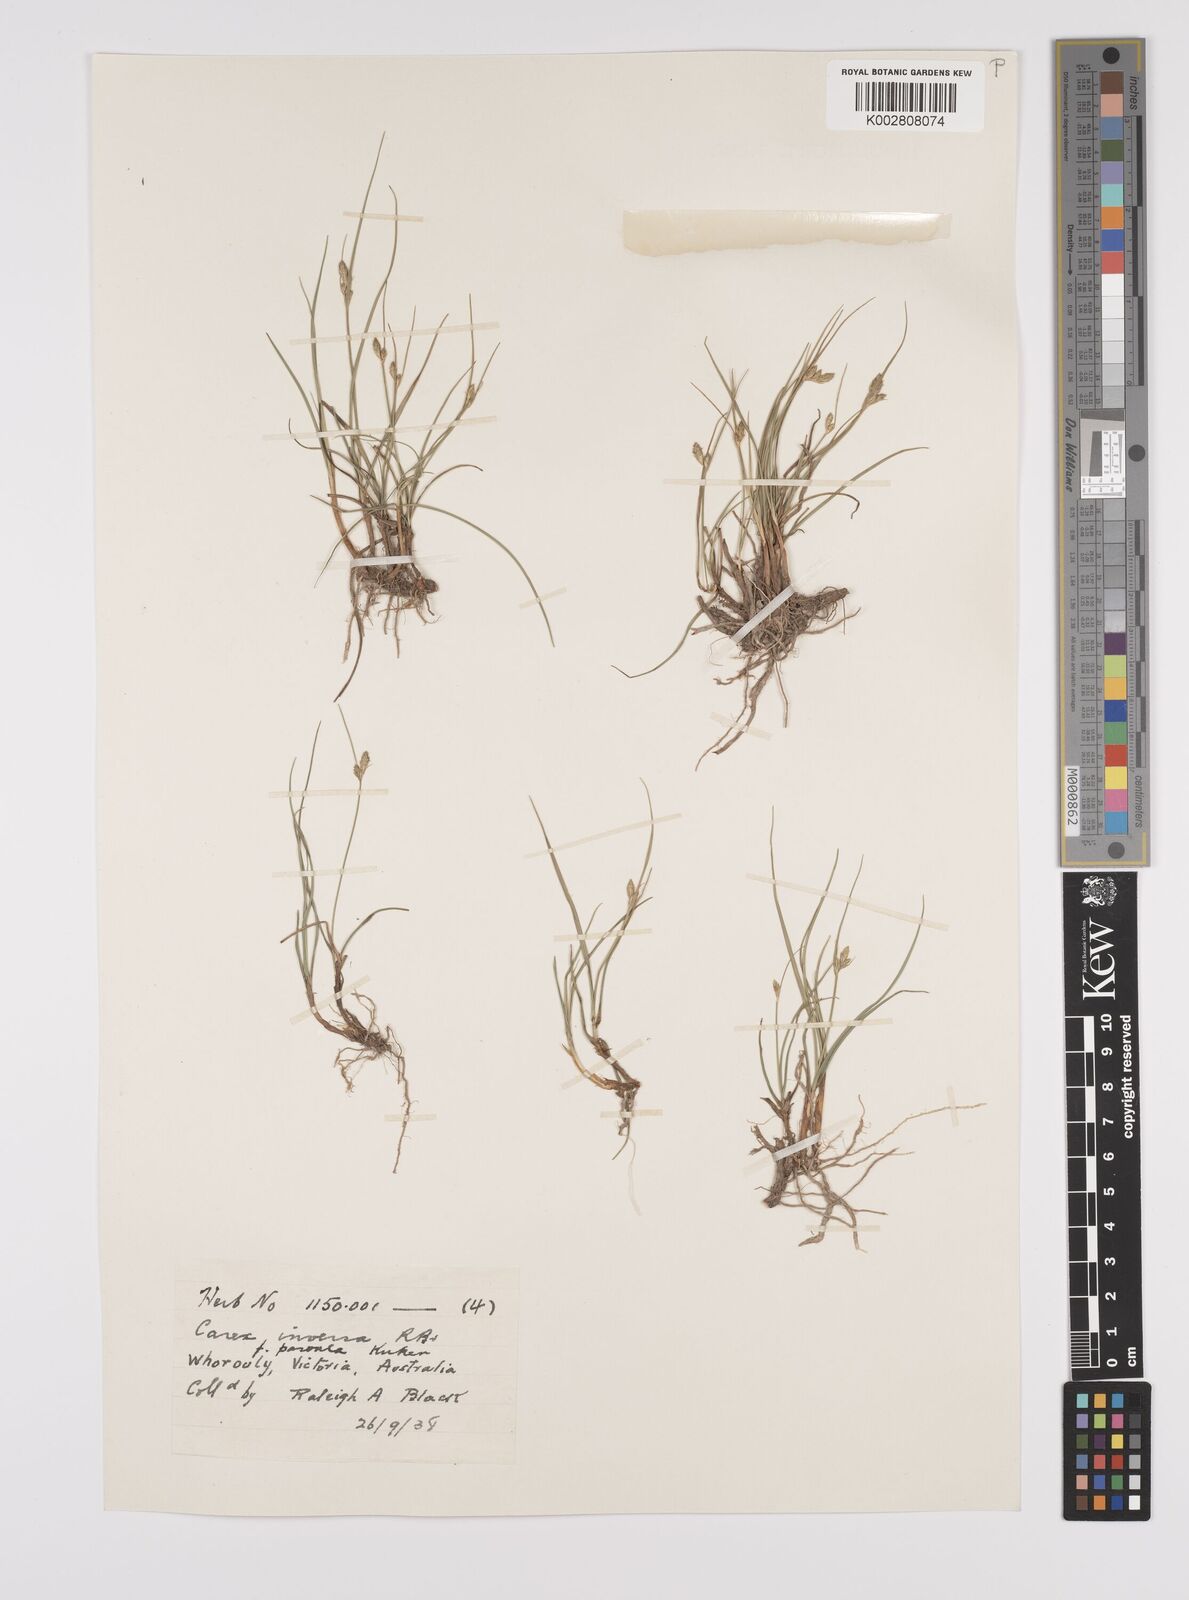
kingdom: Plantae
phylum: Tracheophyta
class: Liliopsida
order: Poales
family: Cyperaceae
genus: Carex
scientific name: Carex inversa
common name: Knob sedge
